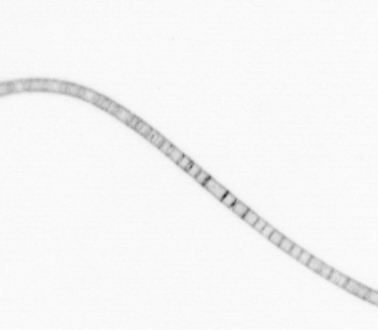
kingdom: Chromista
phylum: Ochrophyta
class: Bacillariophyceae
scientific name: Bacillariophyceae
